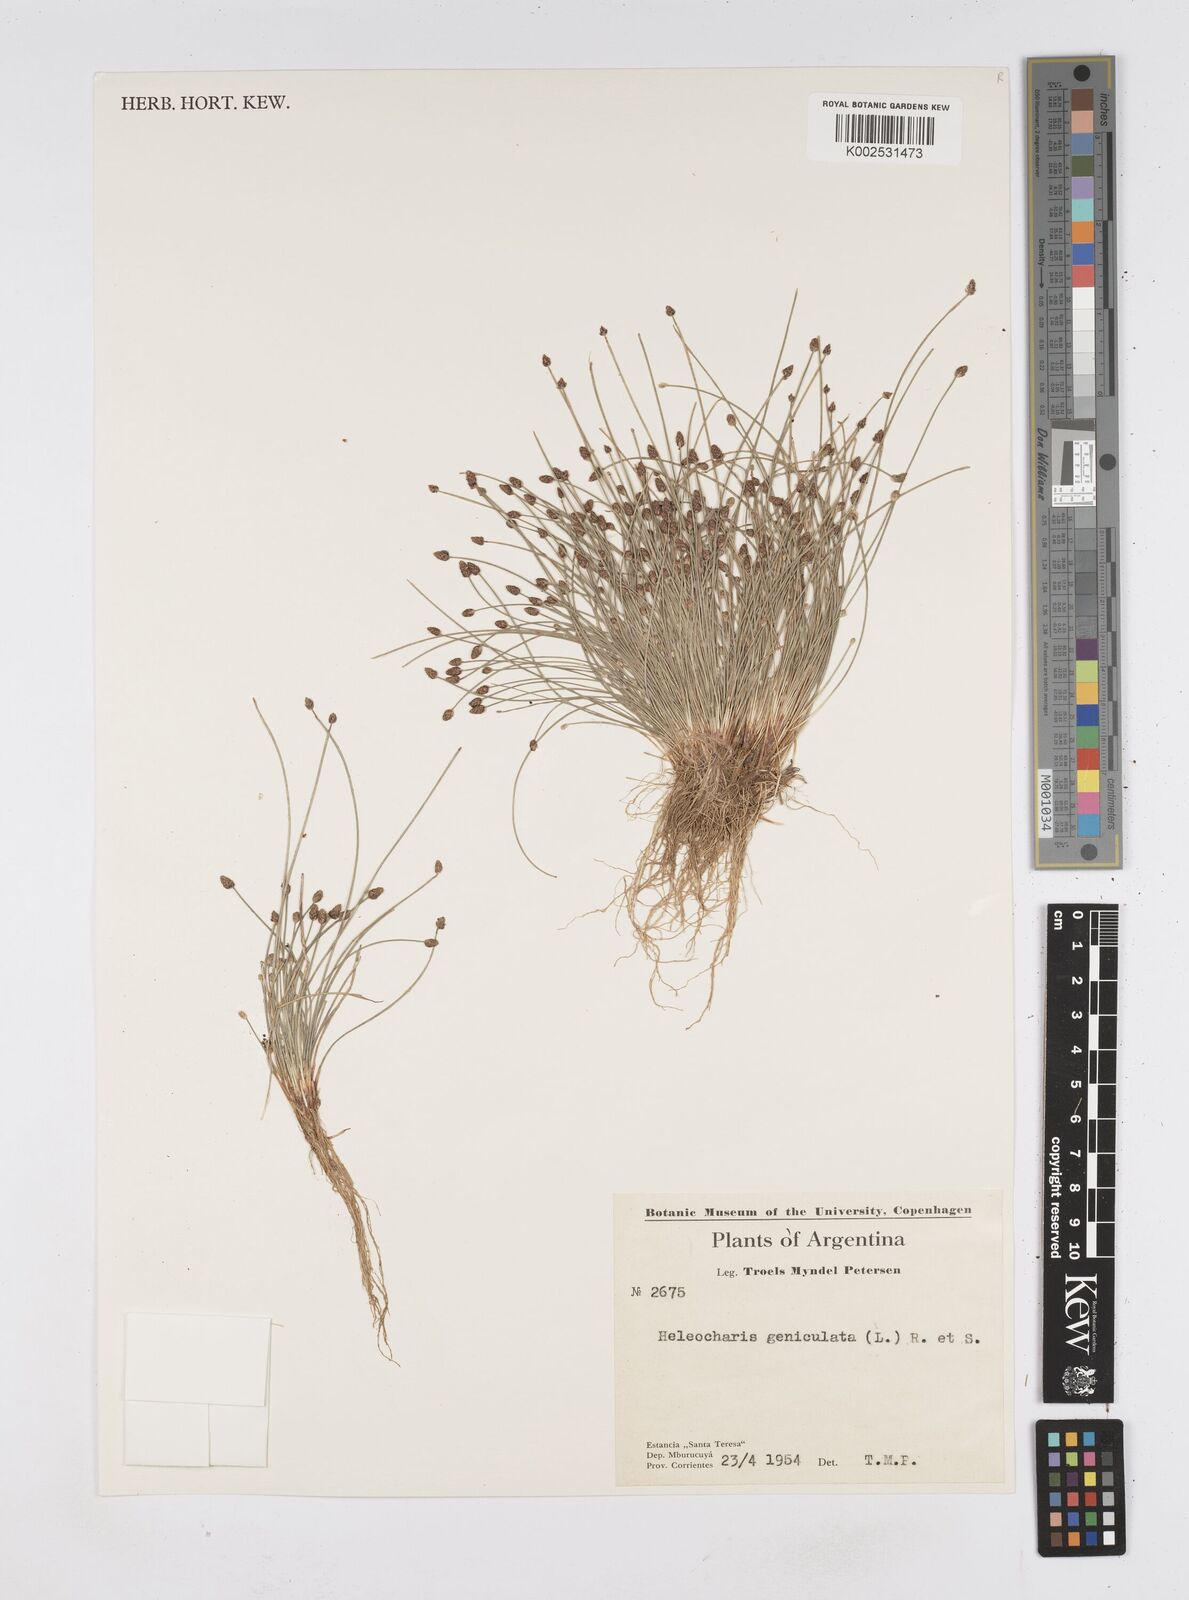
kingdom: Plantae
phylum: Tracheophyta
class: Liliopsida
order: Poales
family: Cyperaceae
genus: Eleocharis
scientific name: Eleocharis geniculata
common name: Canada spikesedge
